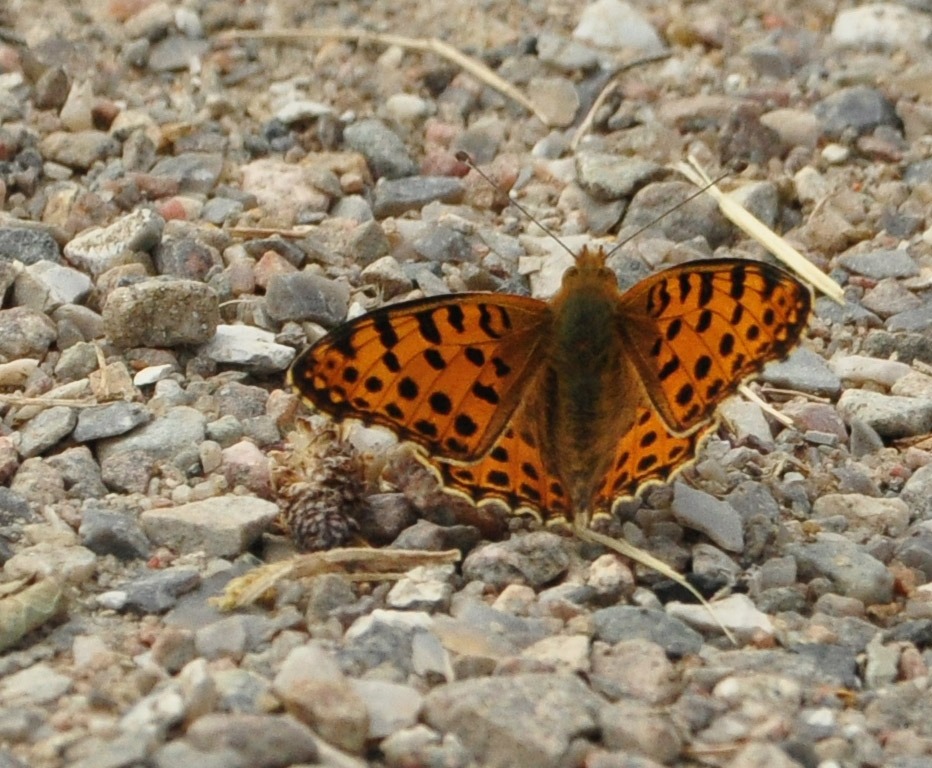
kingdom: Animalia
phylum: Arthropoda
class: Insecta
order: Lepidoptera
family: Nymphalidae
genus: Issoria
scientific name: Issoria lathonia
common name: Storplettet perlemorsommerfugl
